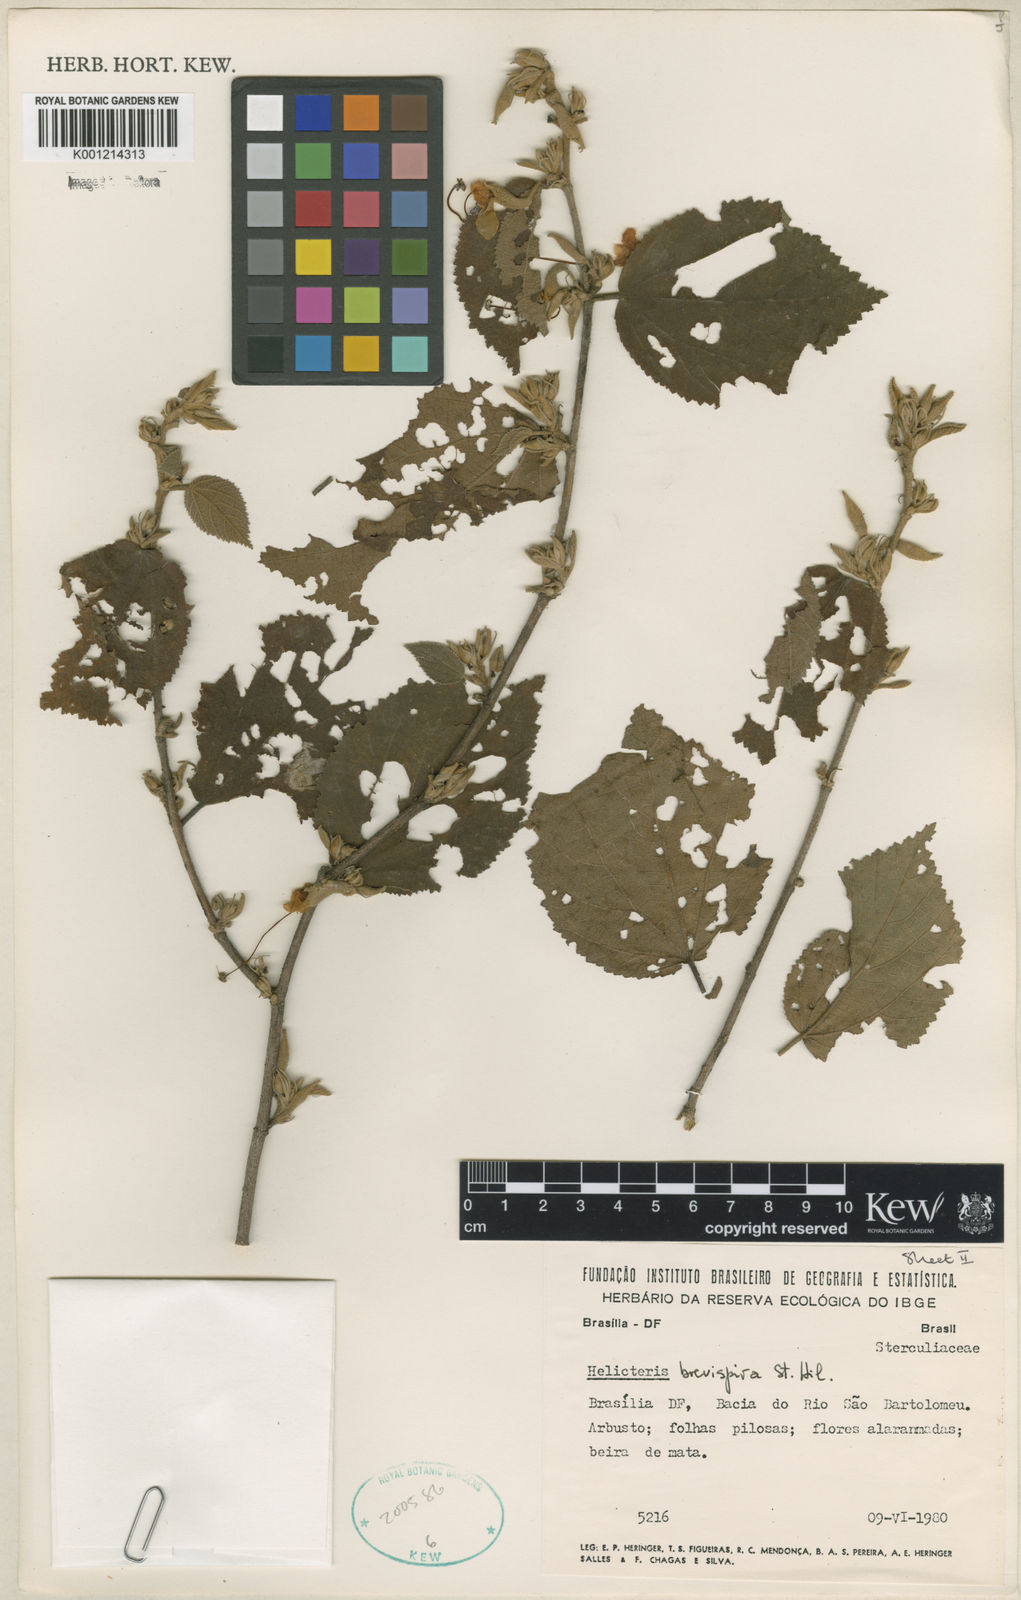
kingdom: Plantae
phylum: Tracheophyta
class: Magnoliopsida
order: Malvales
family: Malvaceae
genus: Helicteres
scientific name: Helicteres
